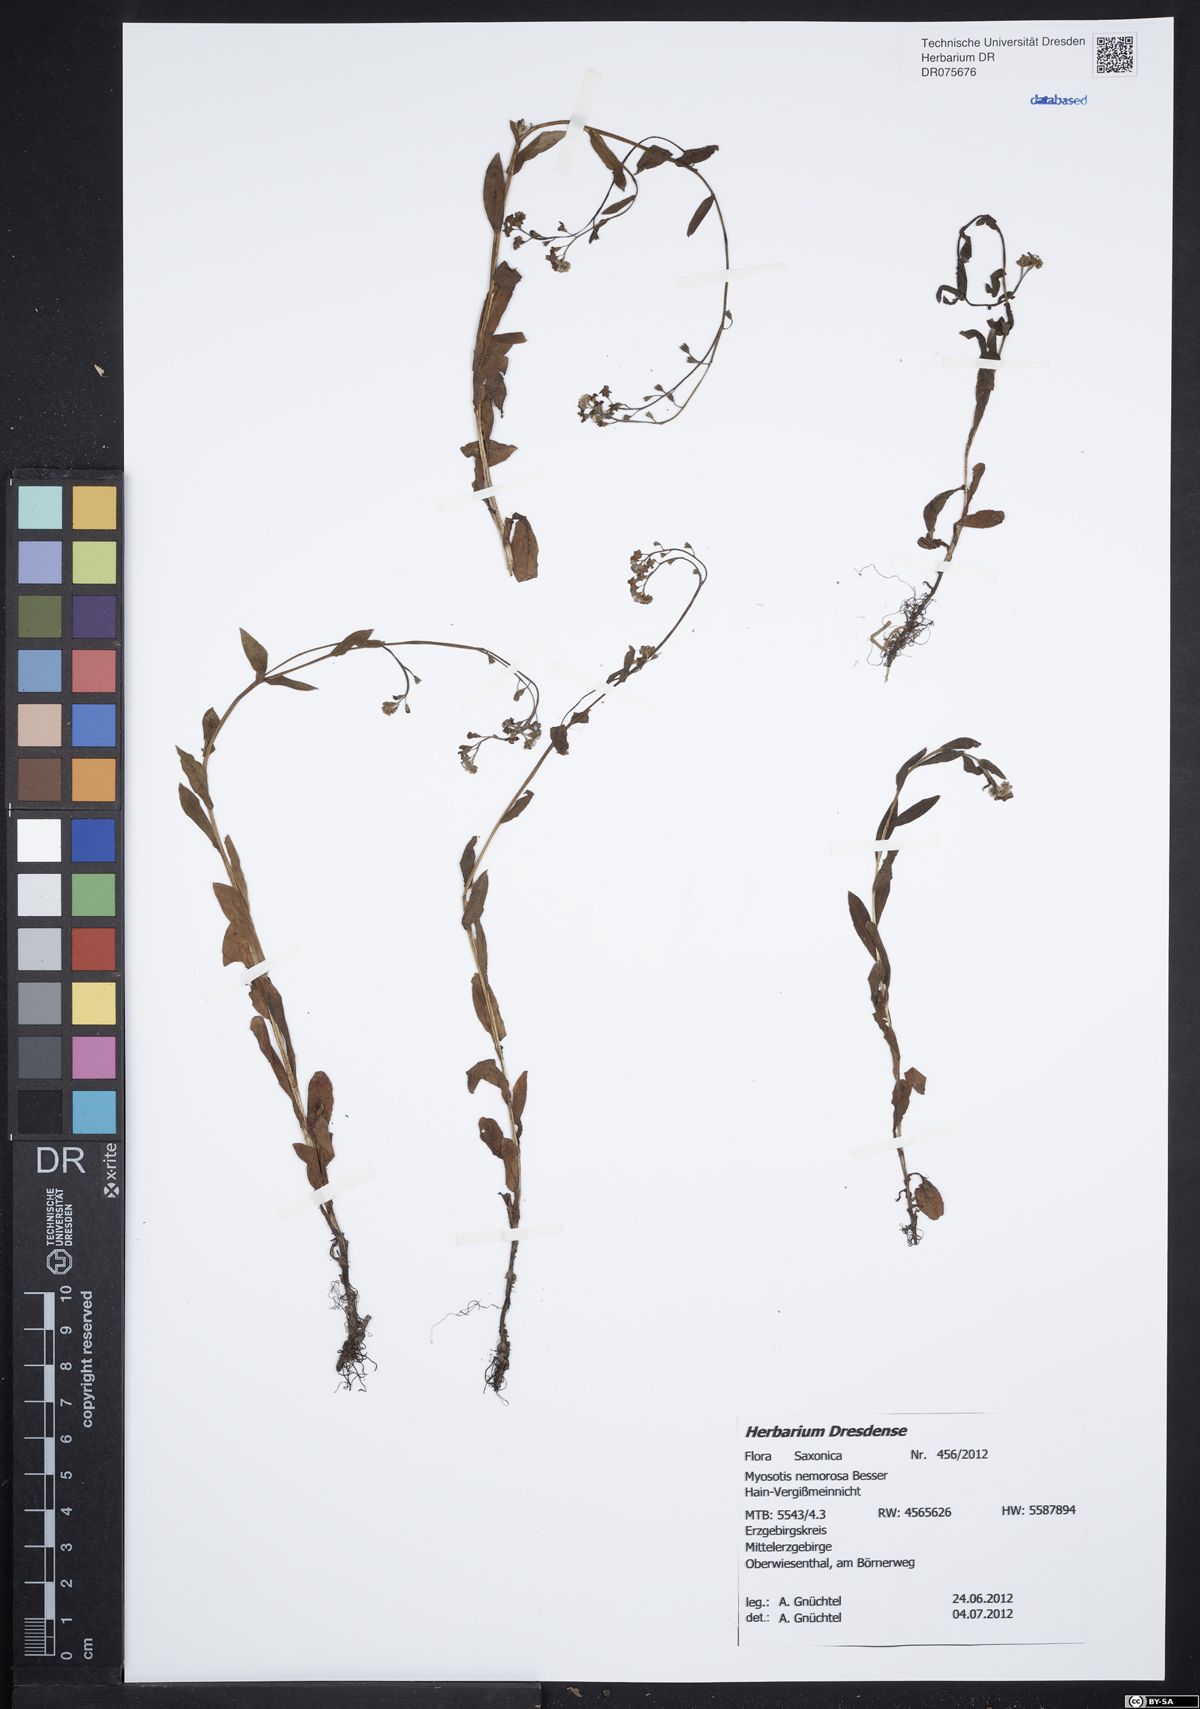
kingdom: Plantae
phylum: Tracheophyta
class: Magnoliopsida
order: Boraginales
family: Boraginaceae
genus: Myosotis
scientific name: Myosotis nemorosa
